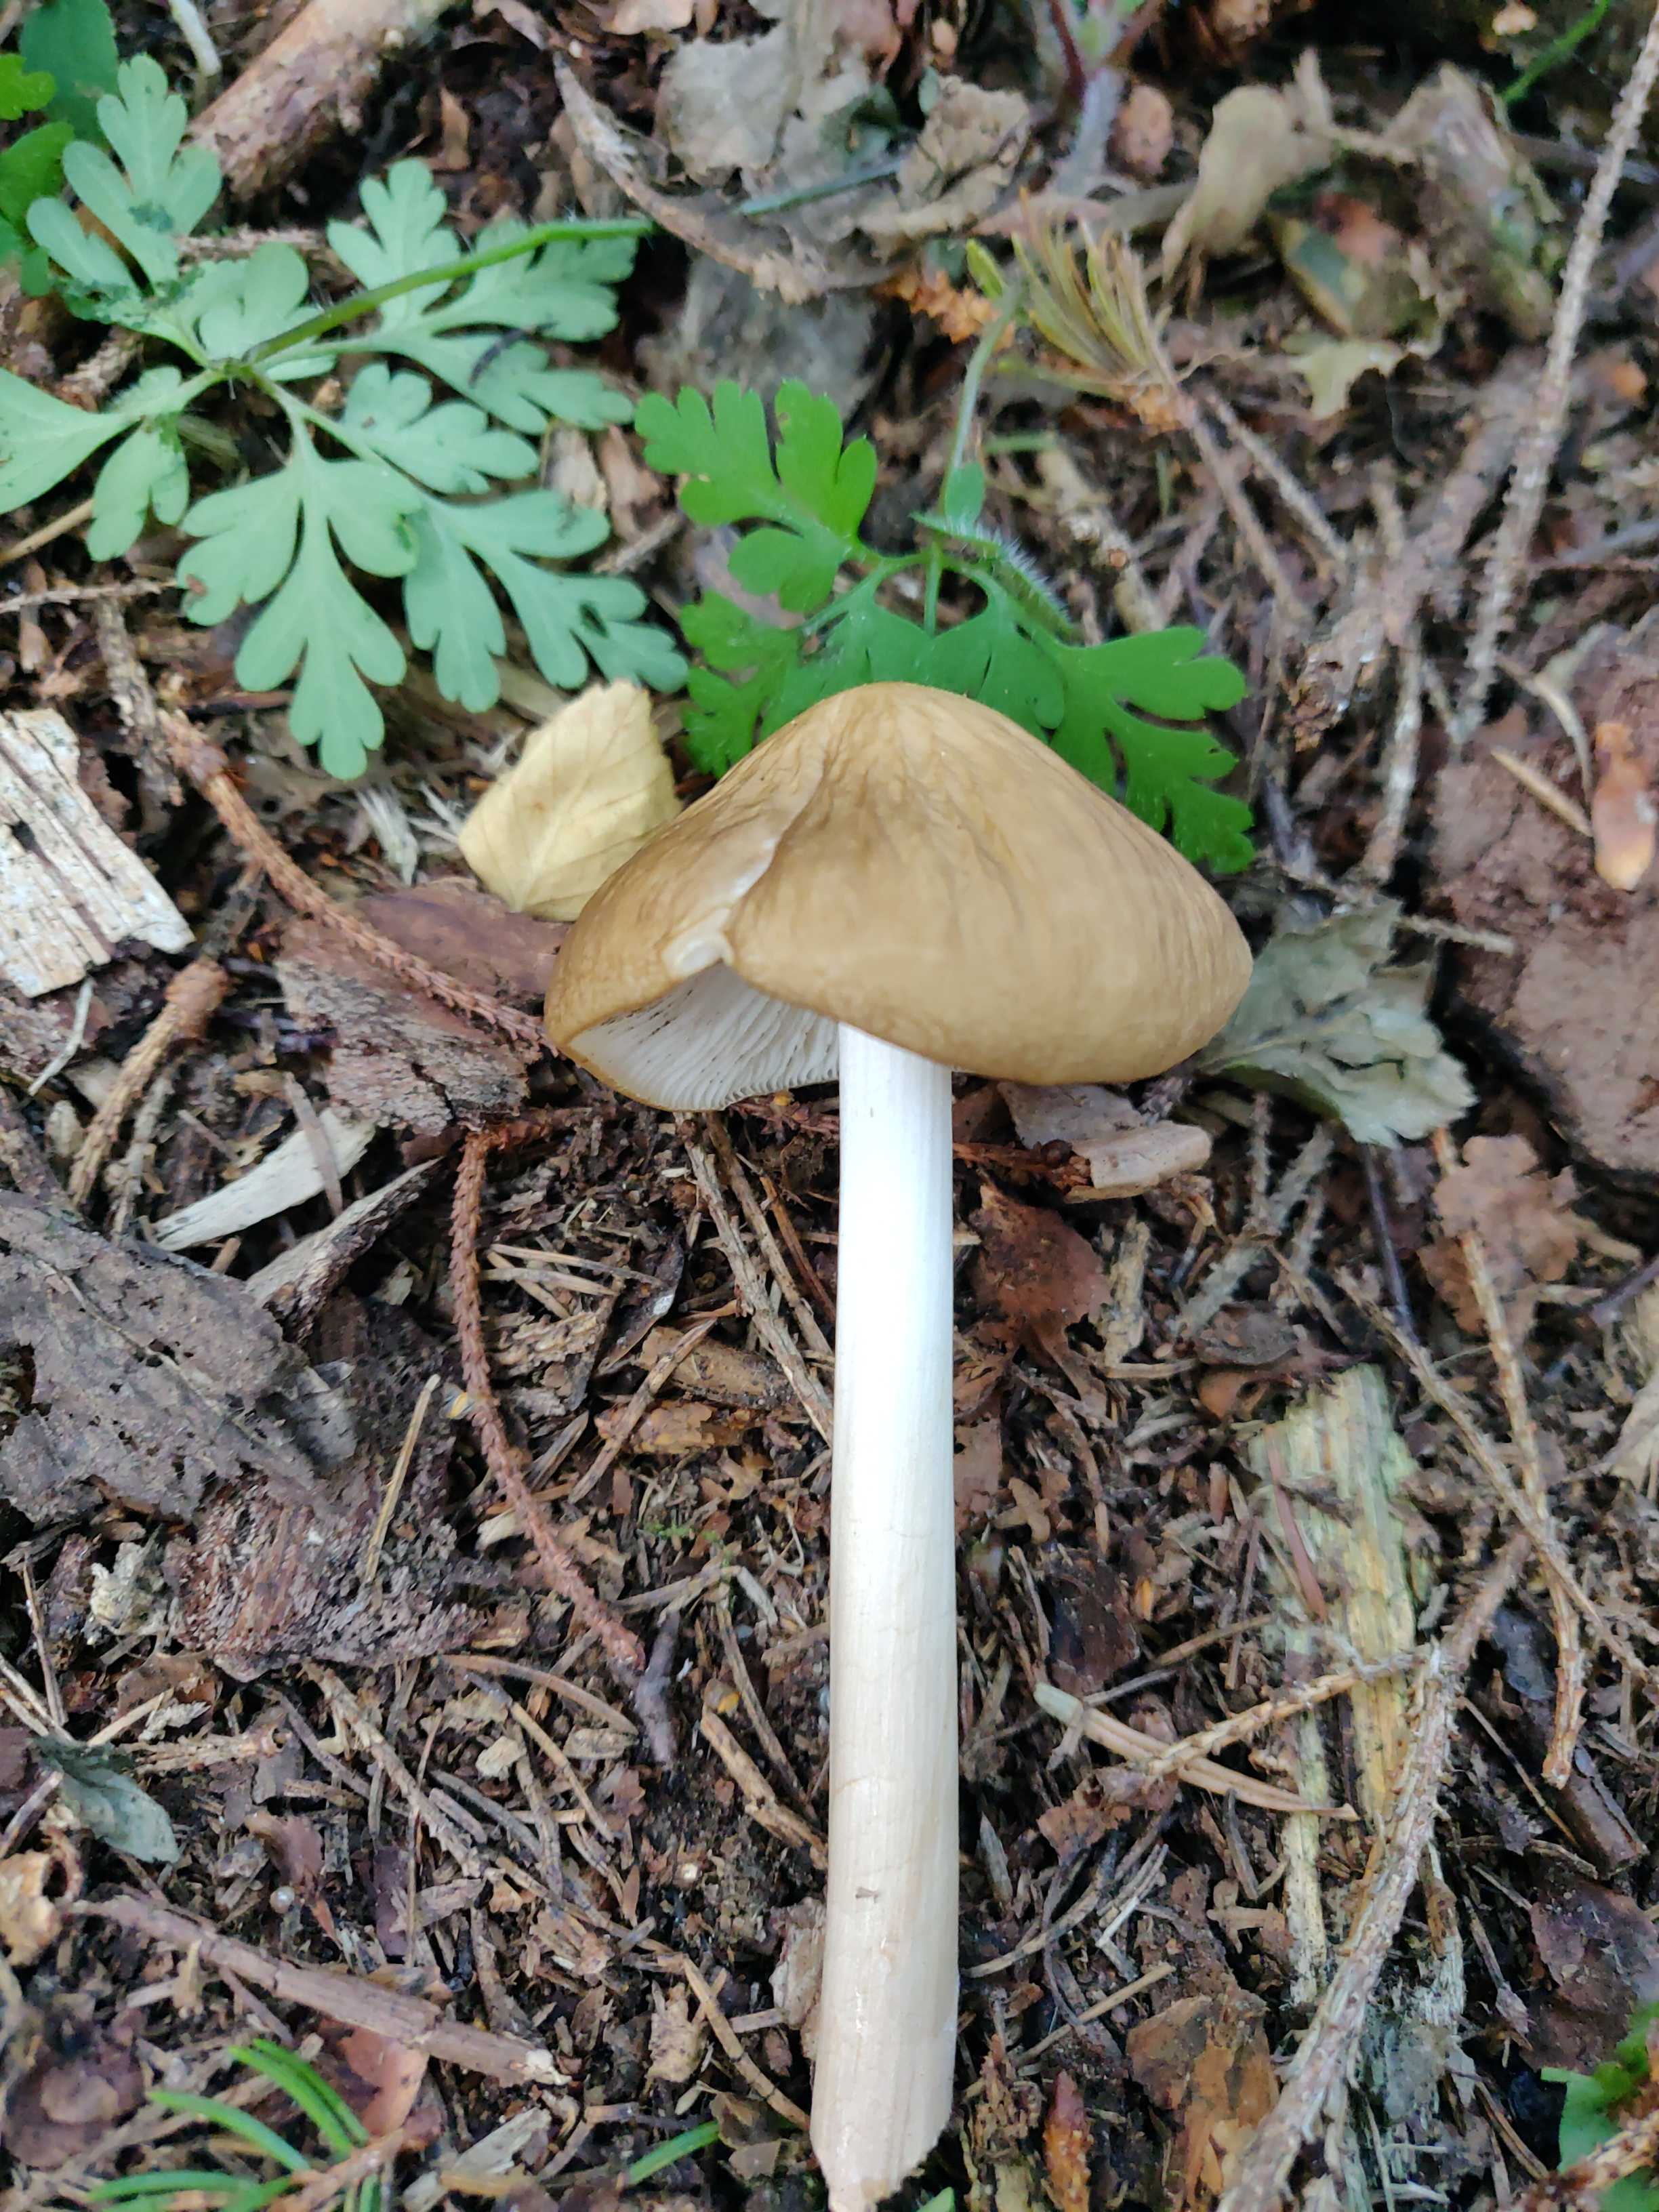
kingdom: Fungi
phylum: Basidiomycota
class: Agaricomycetes
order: Agaricales
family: Physalacriaceae
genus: Hymenopellis
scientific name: Hymenopellis radicata
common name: almindelig pælerodshat
